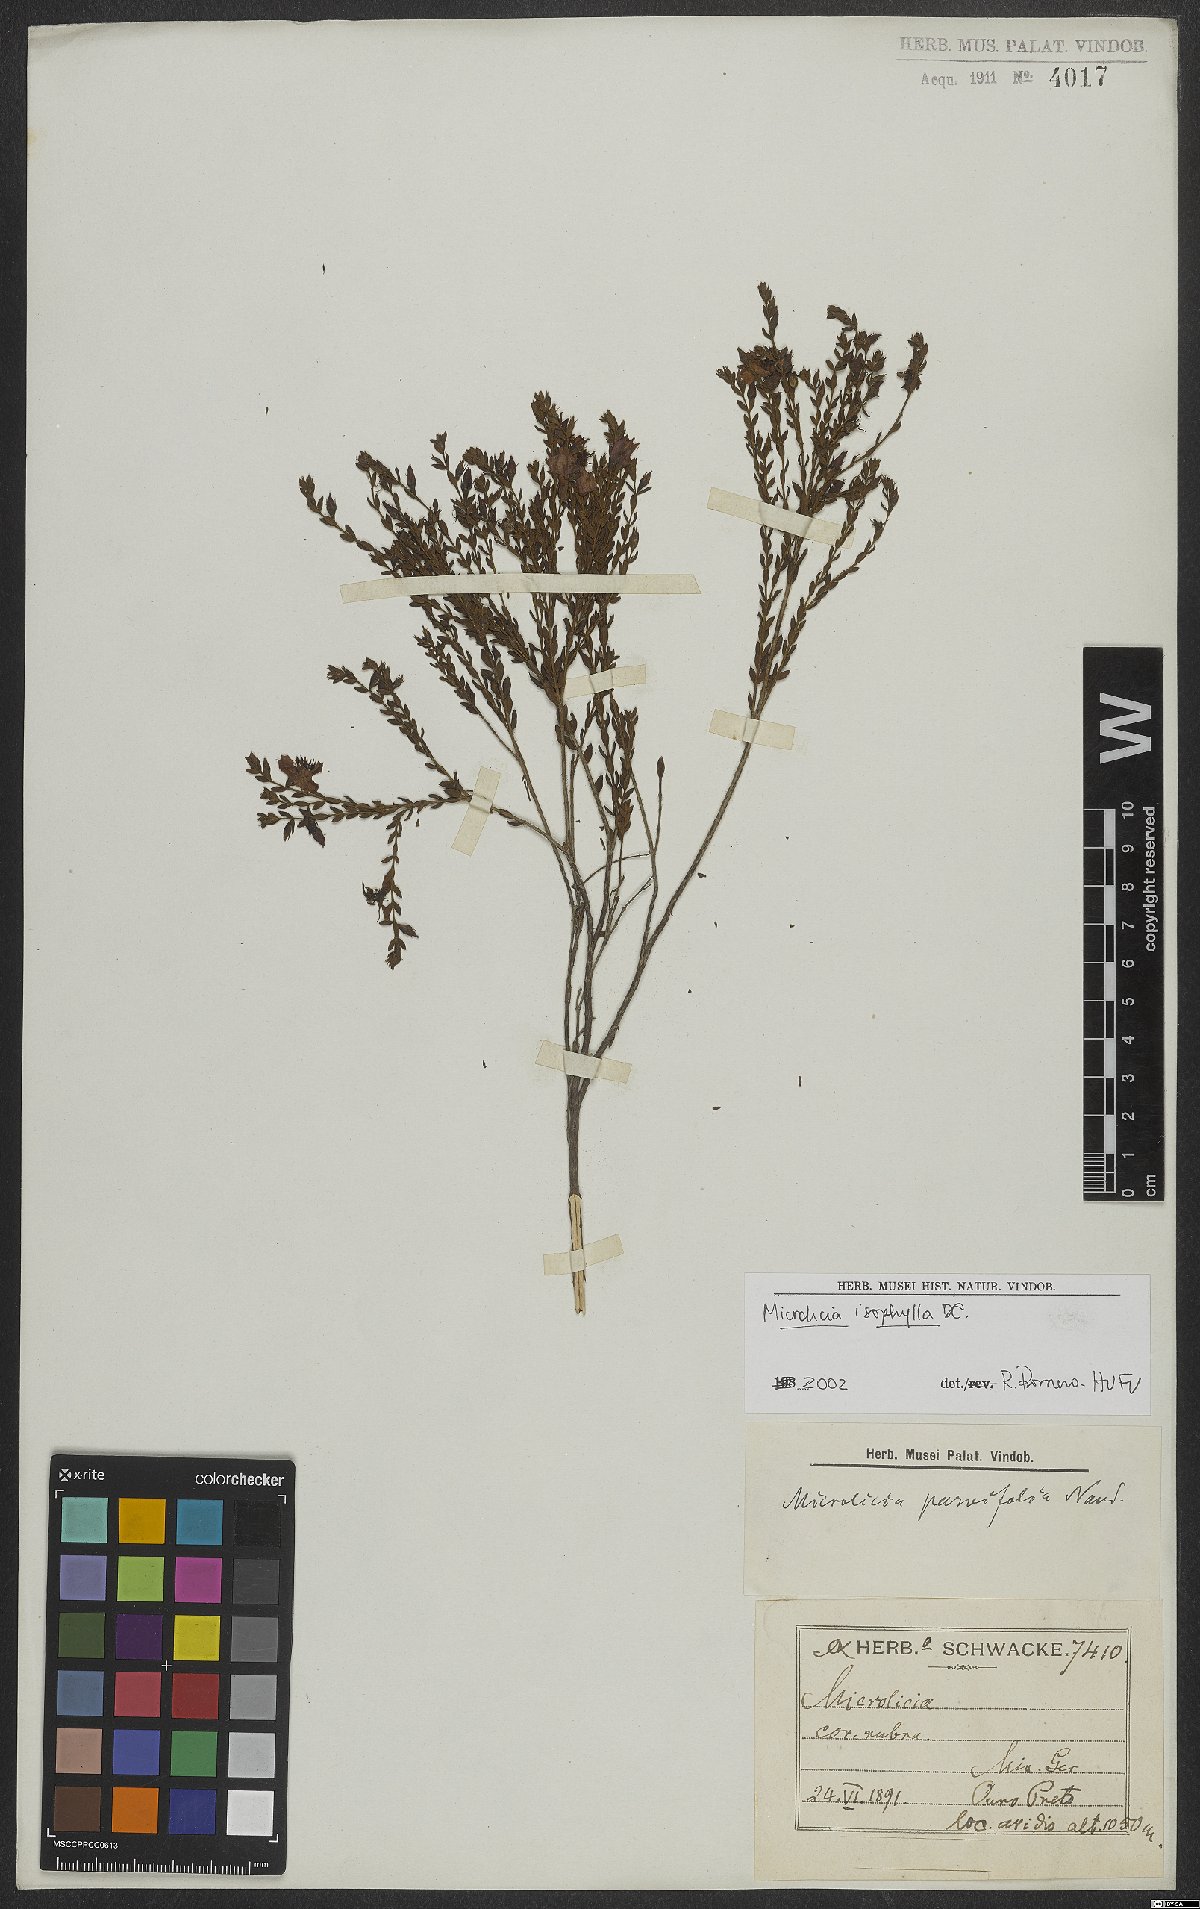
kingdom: Plantae
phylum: Tracheophyta
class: Magnoliopsida
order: Myrtales
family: Melastomataceae
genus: Microlicia
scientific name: Microlicia isophylla
